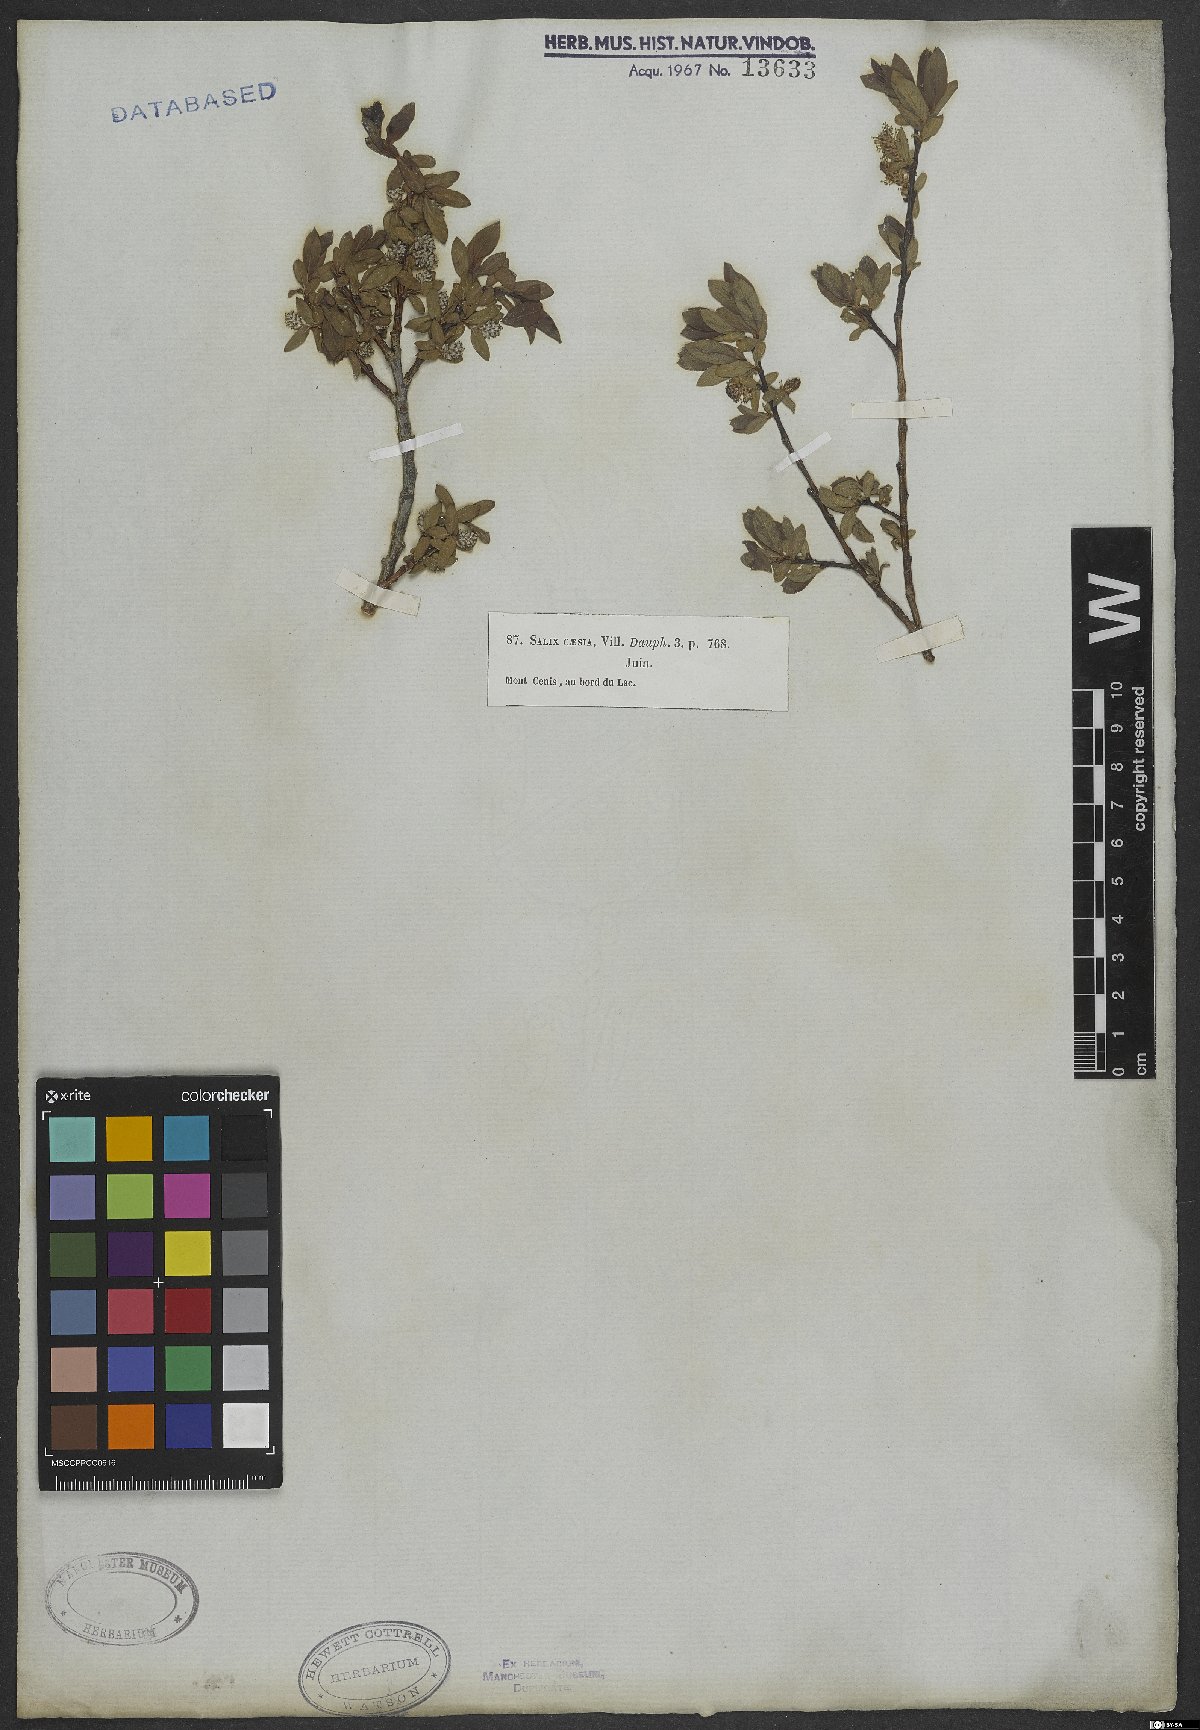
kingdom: Plantae
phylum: Tracheophyta
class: Magnoliopsida
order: Malpighiales
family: Salicaceae
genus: Salix
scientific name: Salix caesia
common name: Blue willow
